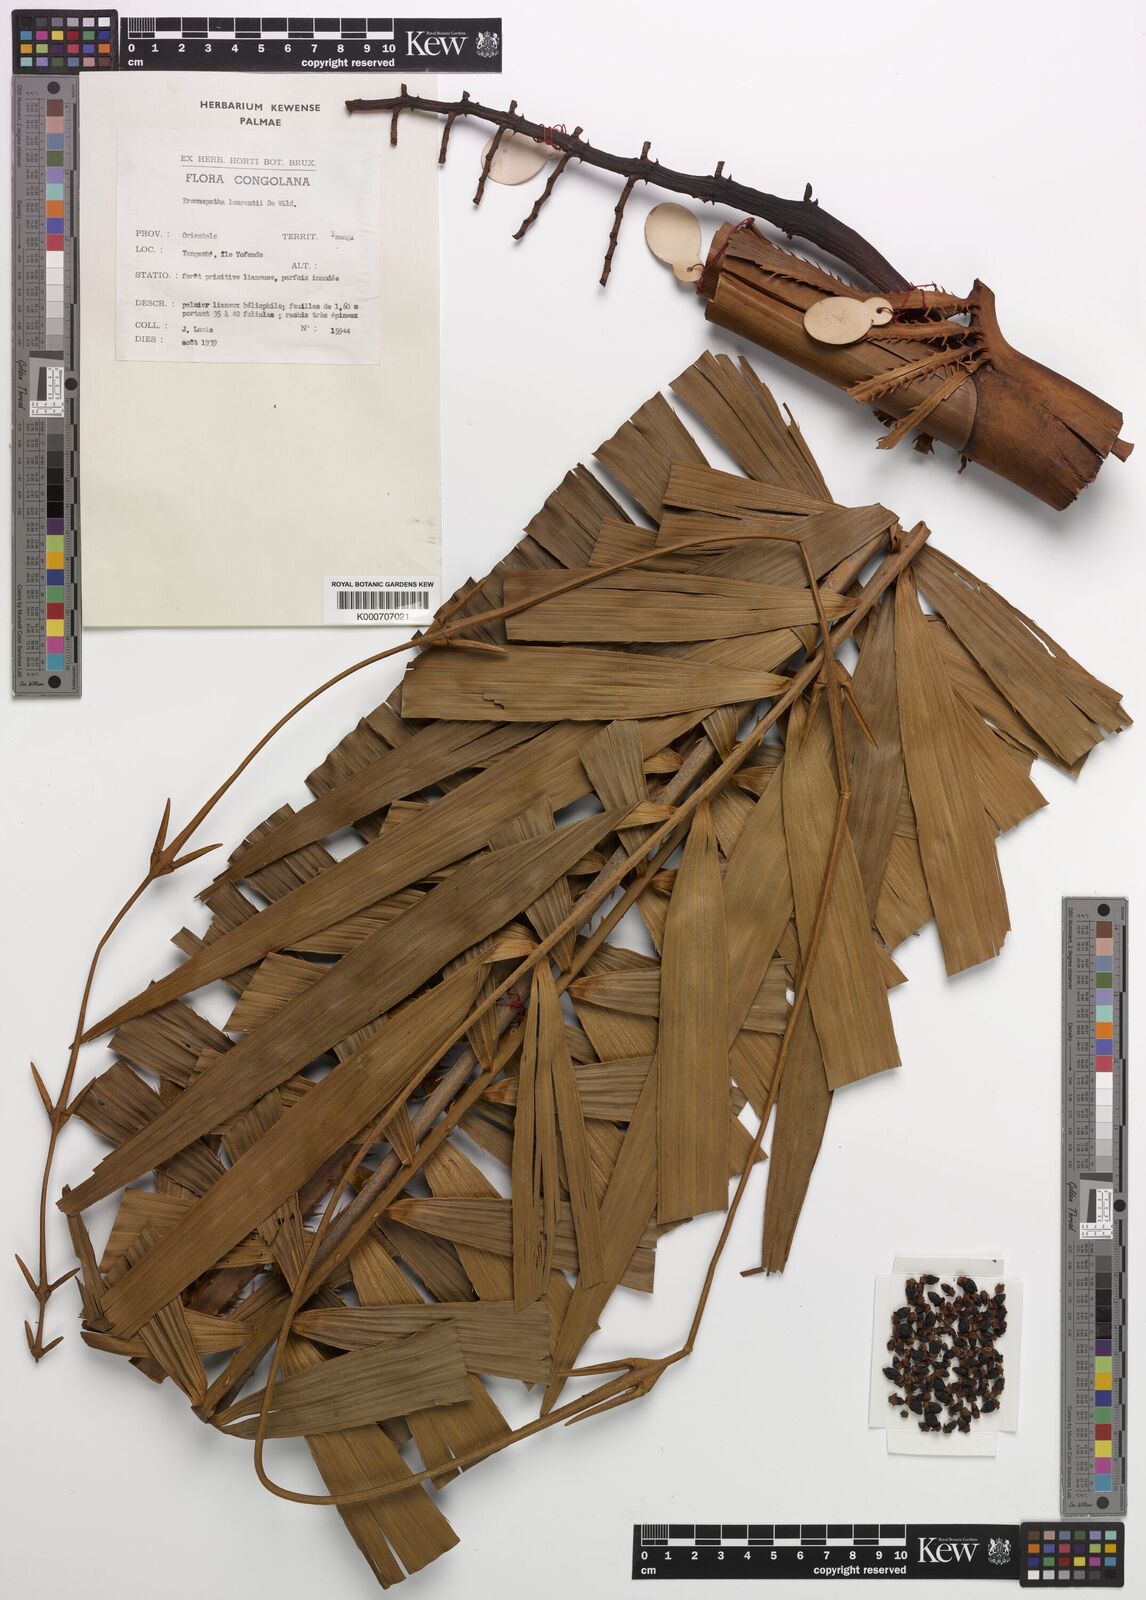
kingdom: Plantae
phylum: Tracheophyta
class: Liliopsida
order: Arecales
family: Arecaceae
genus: Eremospatha
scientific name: Eremospatha laurentii
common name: Rattan palm
